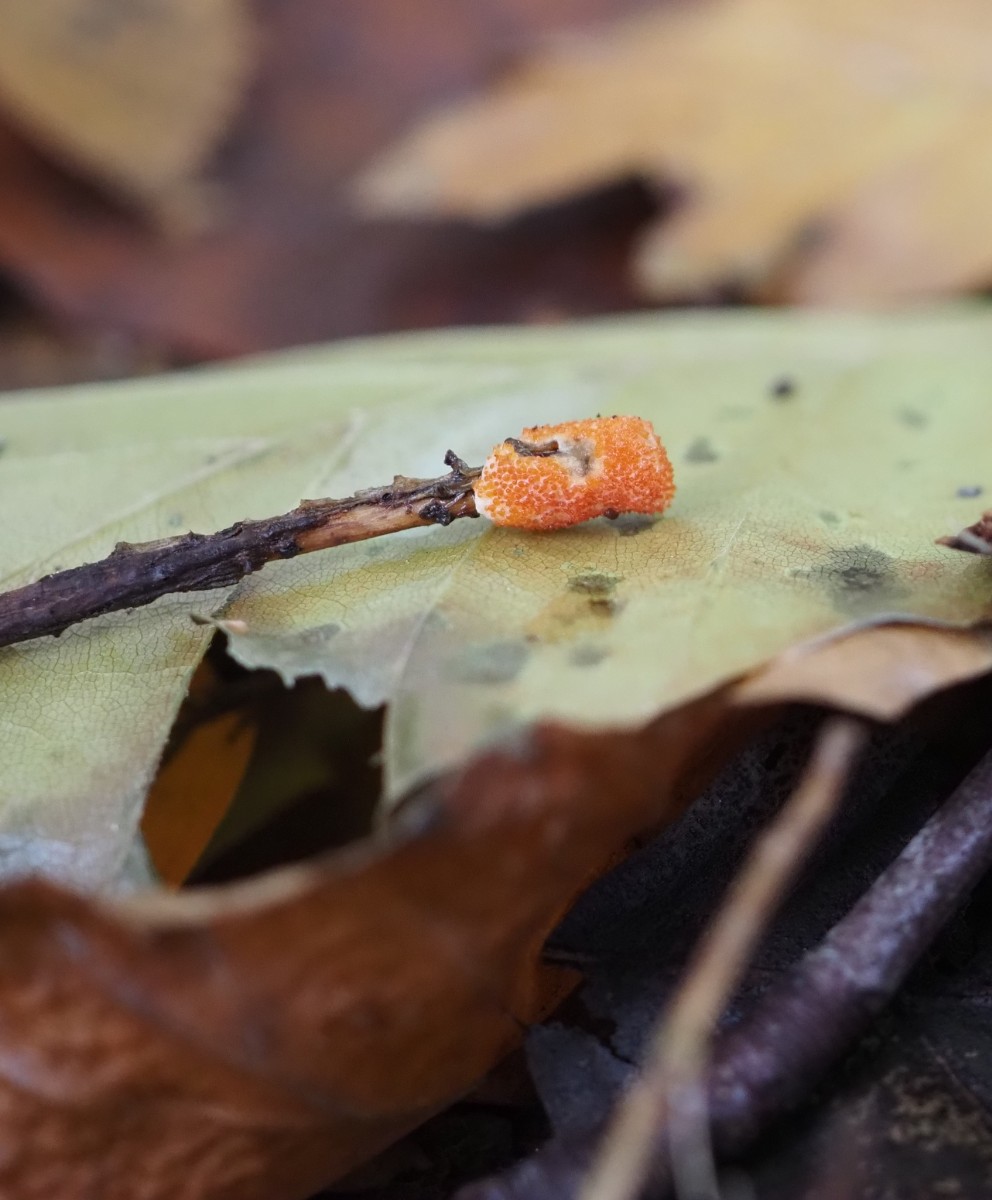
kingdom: Fungi
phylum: Ascomycota
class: Sordariomycetes
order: Hypocreales
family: Hypocreaceae
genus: Hypomyces
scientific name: Hypomyces ochraceus
